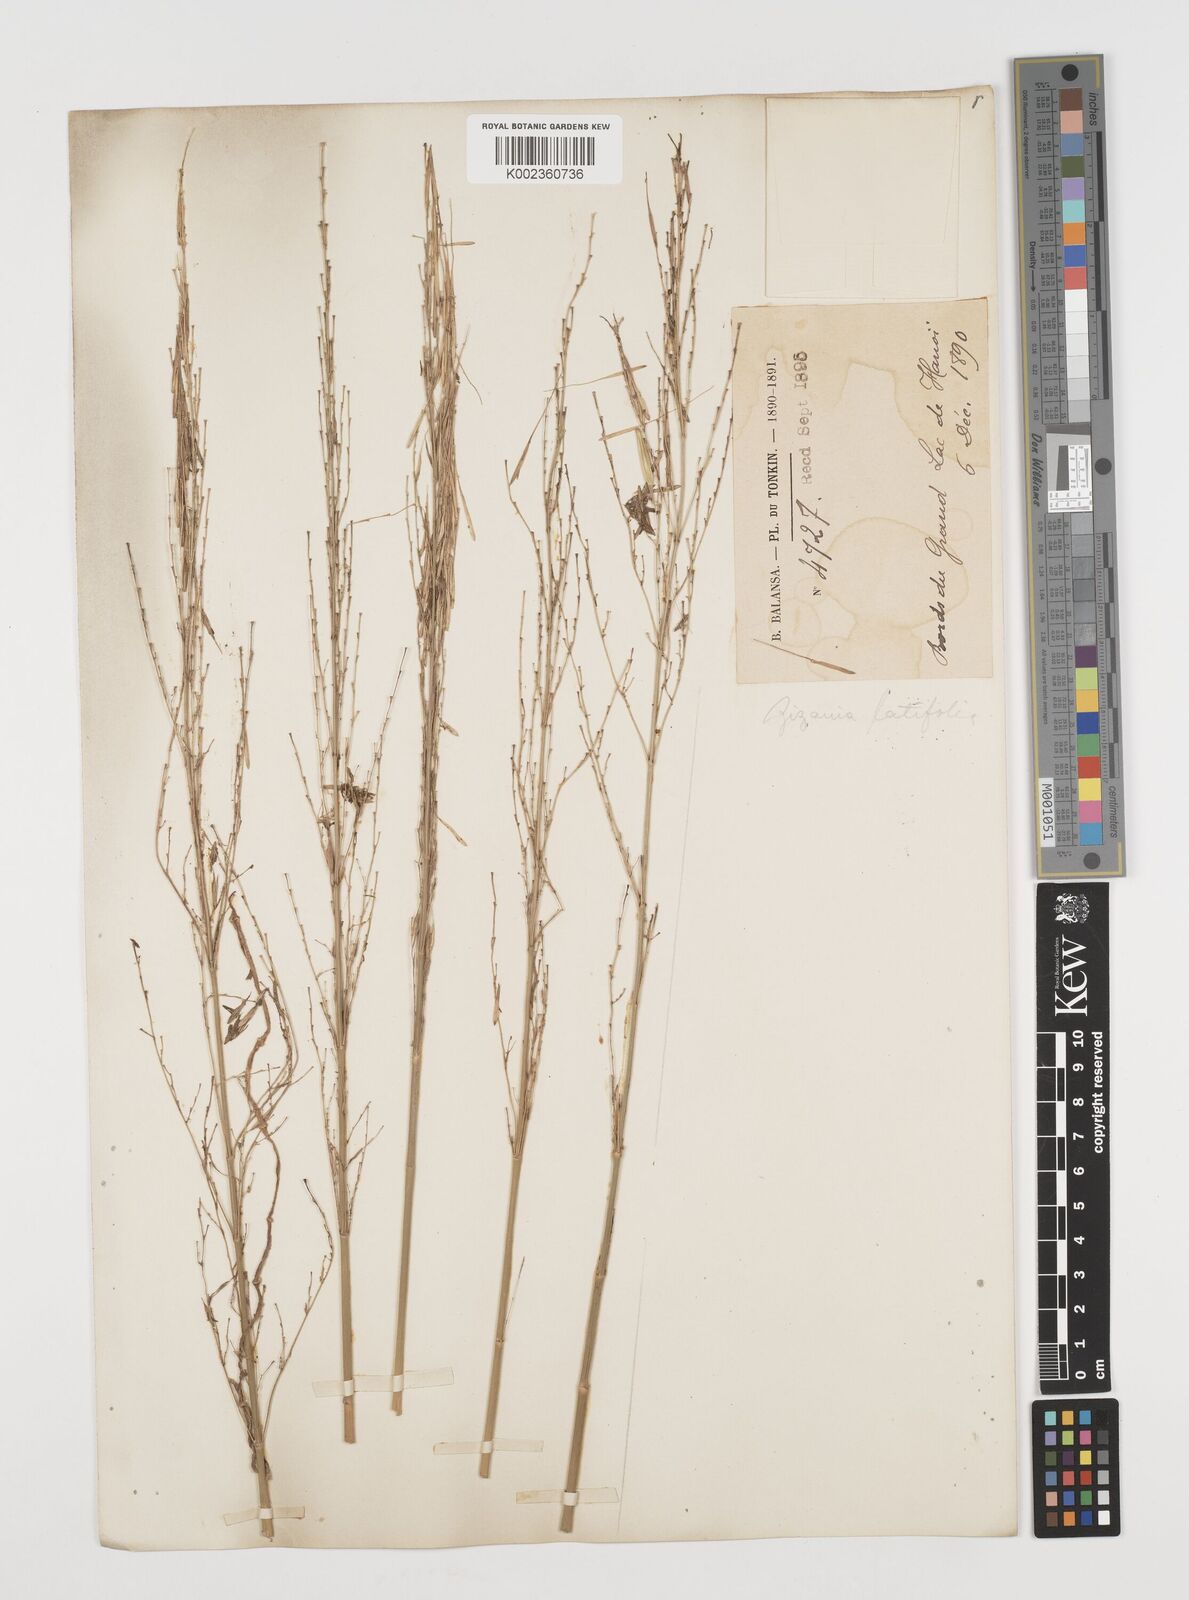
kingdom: Plantae
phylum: Tracheophyta
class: Liliopsida
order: Poales
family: Poaceae
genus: Zizania
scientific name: Zizania latifolia
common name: Manchurian wildrice
